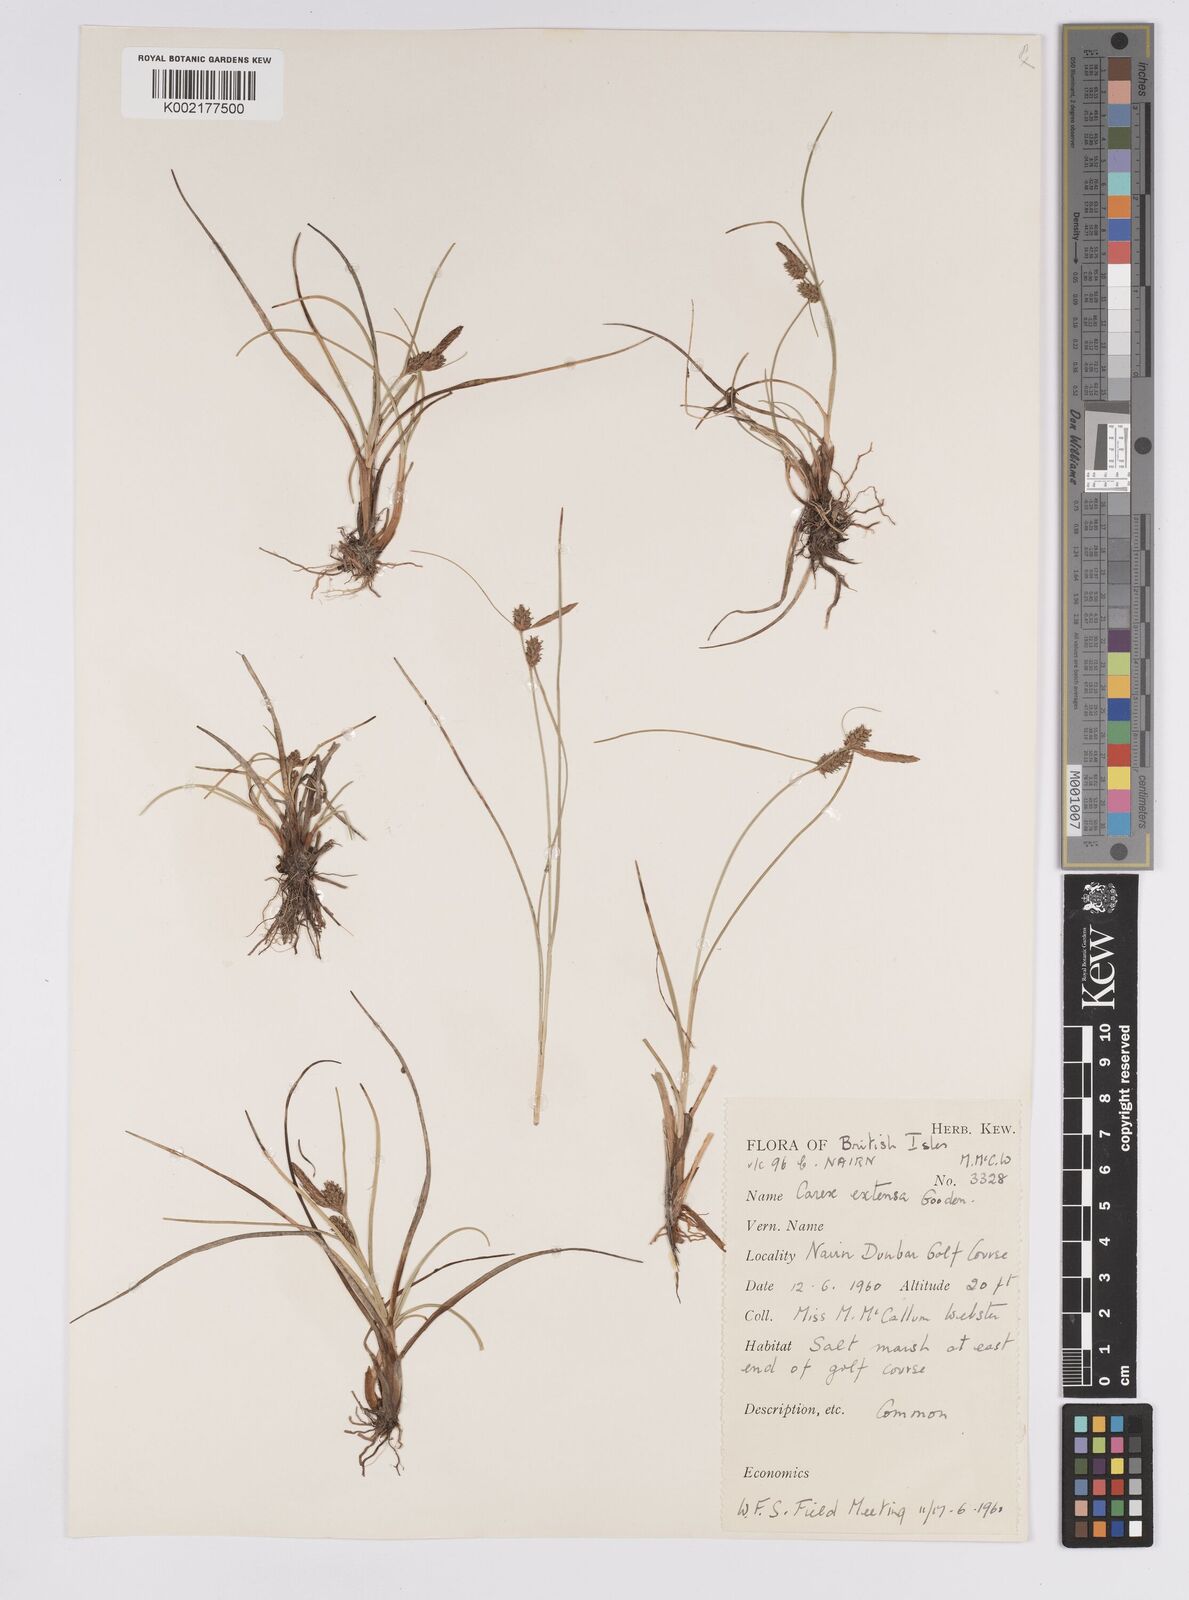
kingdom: Plantae
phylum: Tracheophyta
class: Liliopsida
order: Poales
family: Cyperaceae
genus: Carex
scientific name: Carex extensa
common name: Long-bracted sedge
